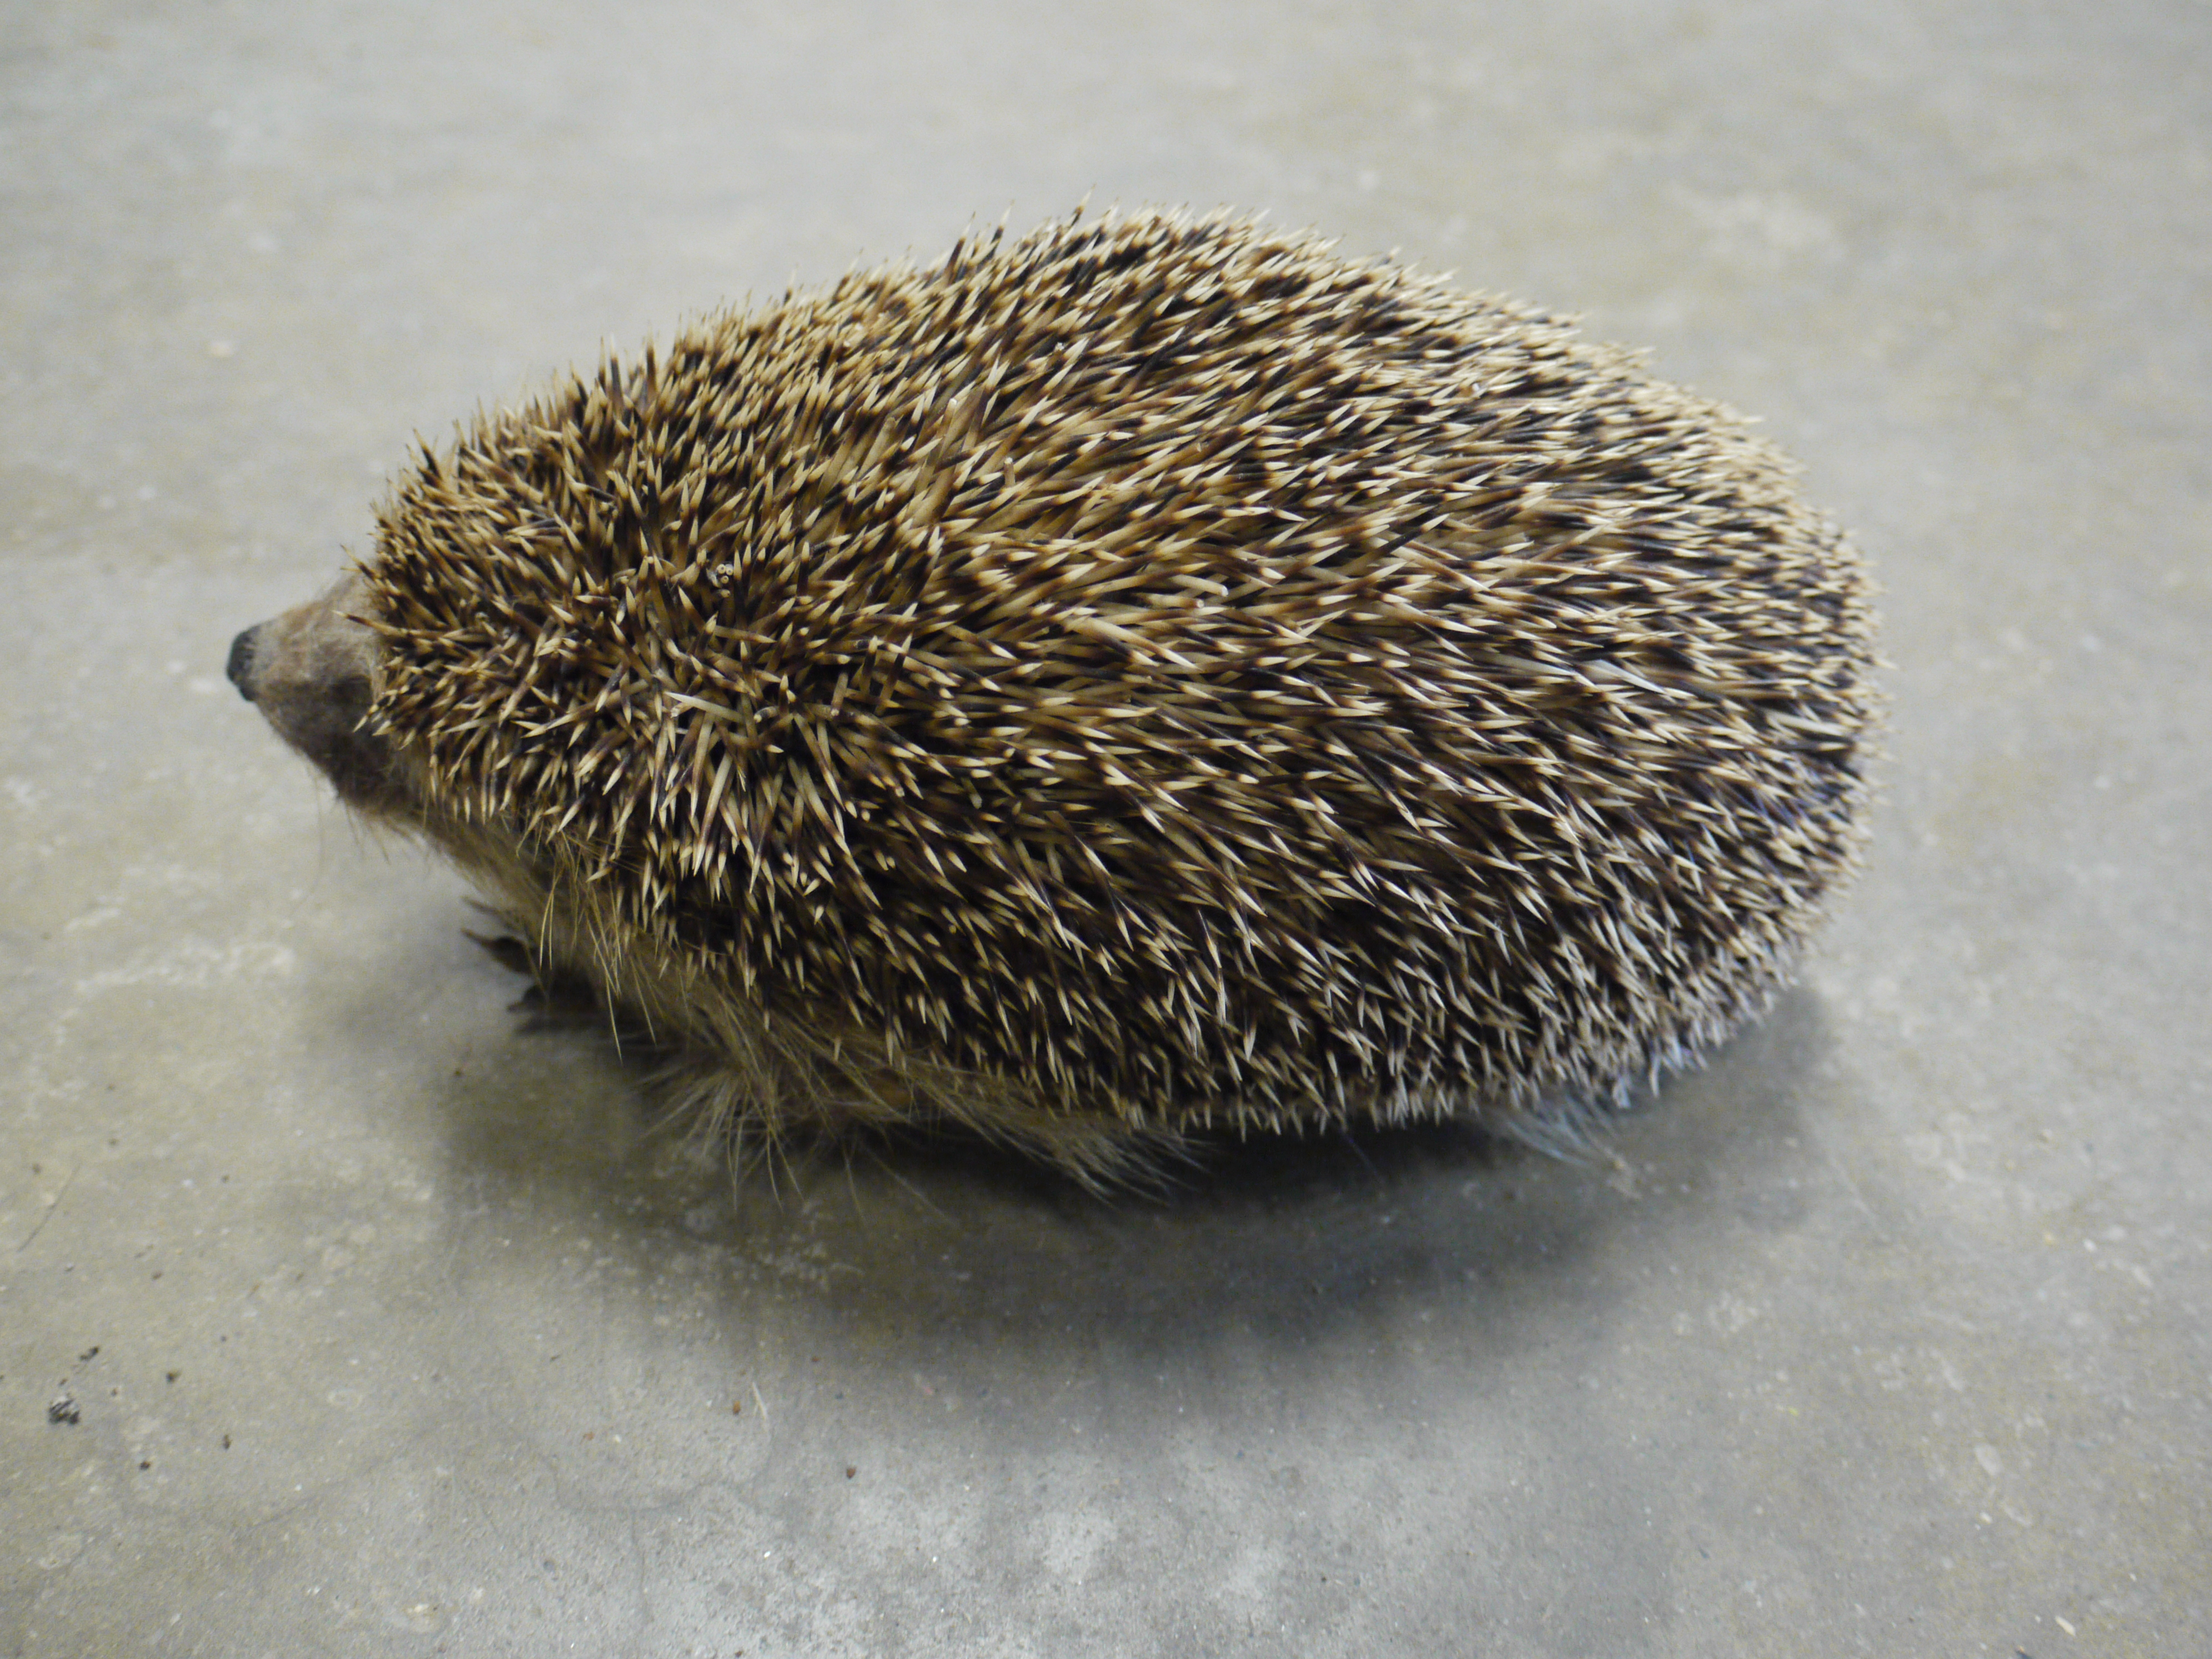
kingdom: Animalia
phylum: Chordata
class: Mammalia
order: Erinaceomorpha
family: Erinaceidae
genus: Erinaceus
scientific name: Erinaceus roumanicus
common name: Northern white-breasted hedgehog
